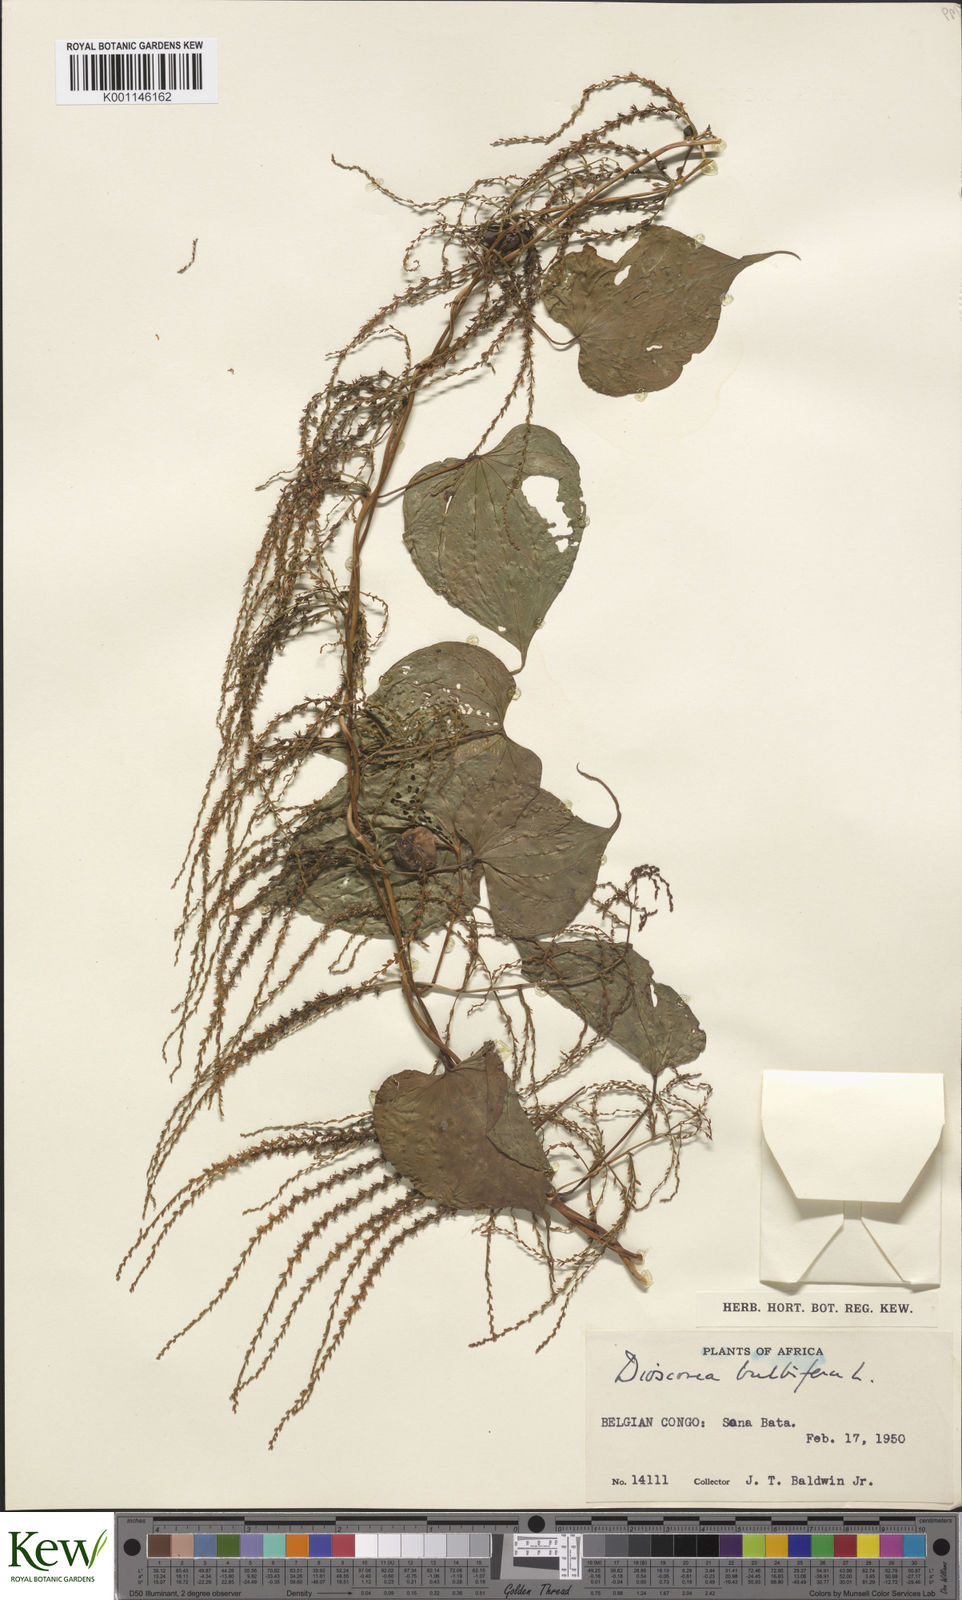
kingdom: Plantae
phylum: Tracheophyta
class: Liliopsida
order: Dioscoreales
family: Dioscoreaceae
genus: Dioscorea
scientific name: Dioscorea bulbifera
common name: Air yam
